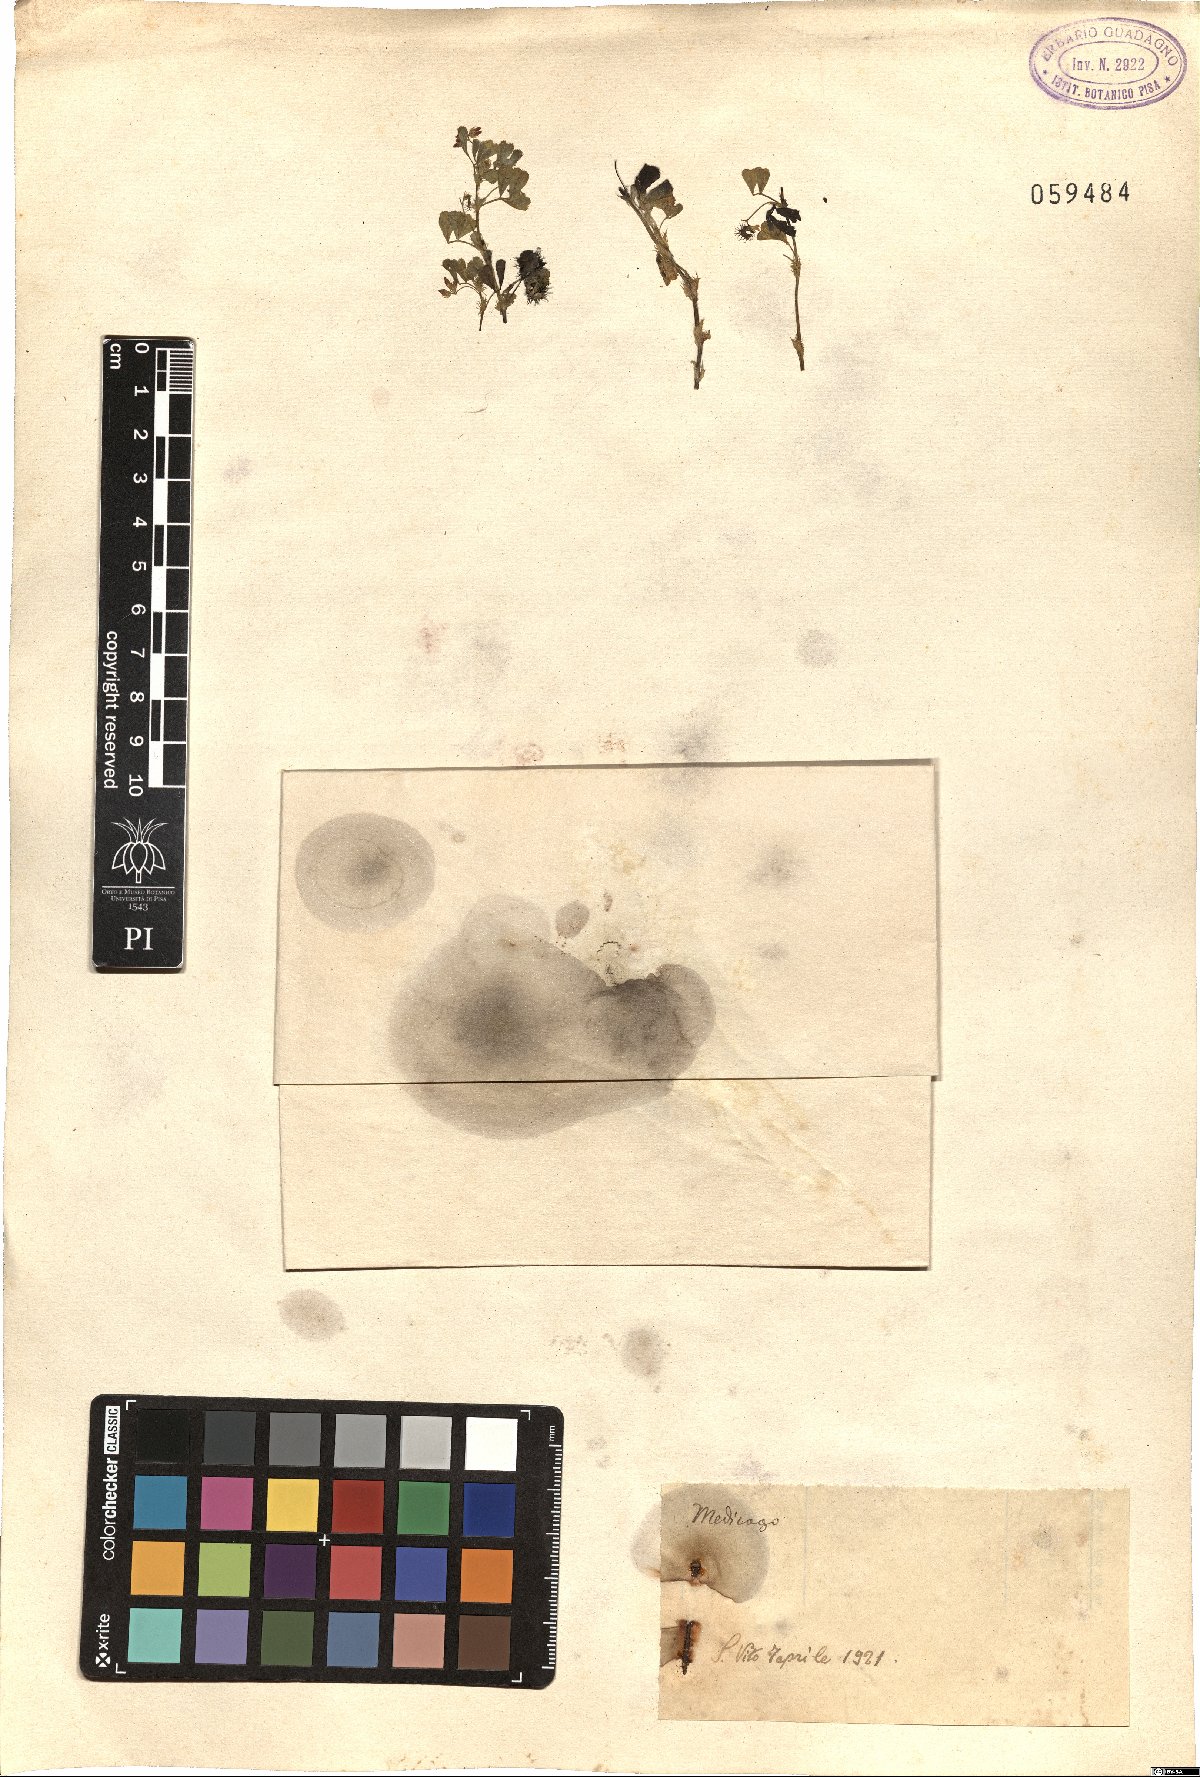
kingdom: Plantae
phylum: Tracheophyta
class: Magnoliopsida
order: Fabales
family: Fabaceae
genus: Medicago
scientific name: Medicago
